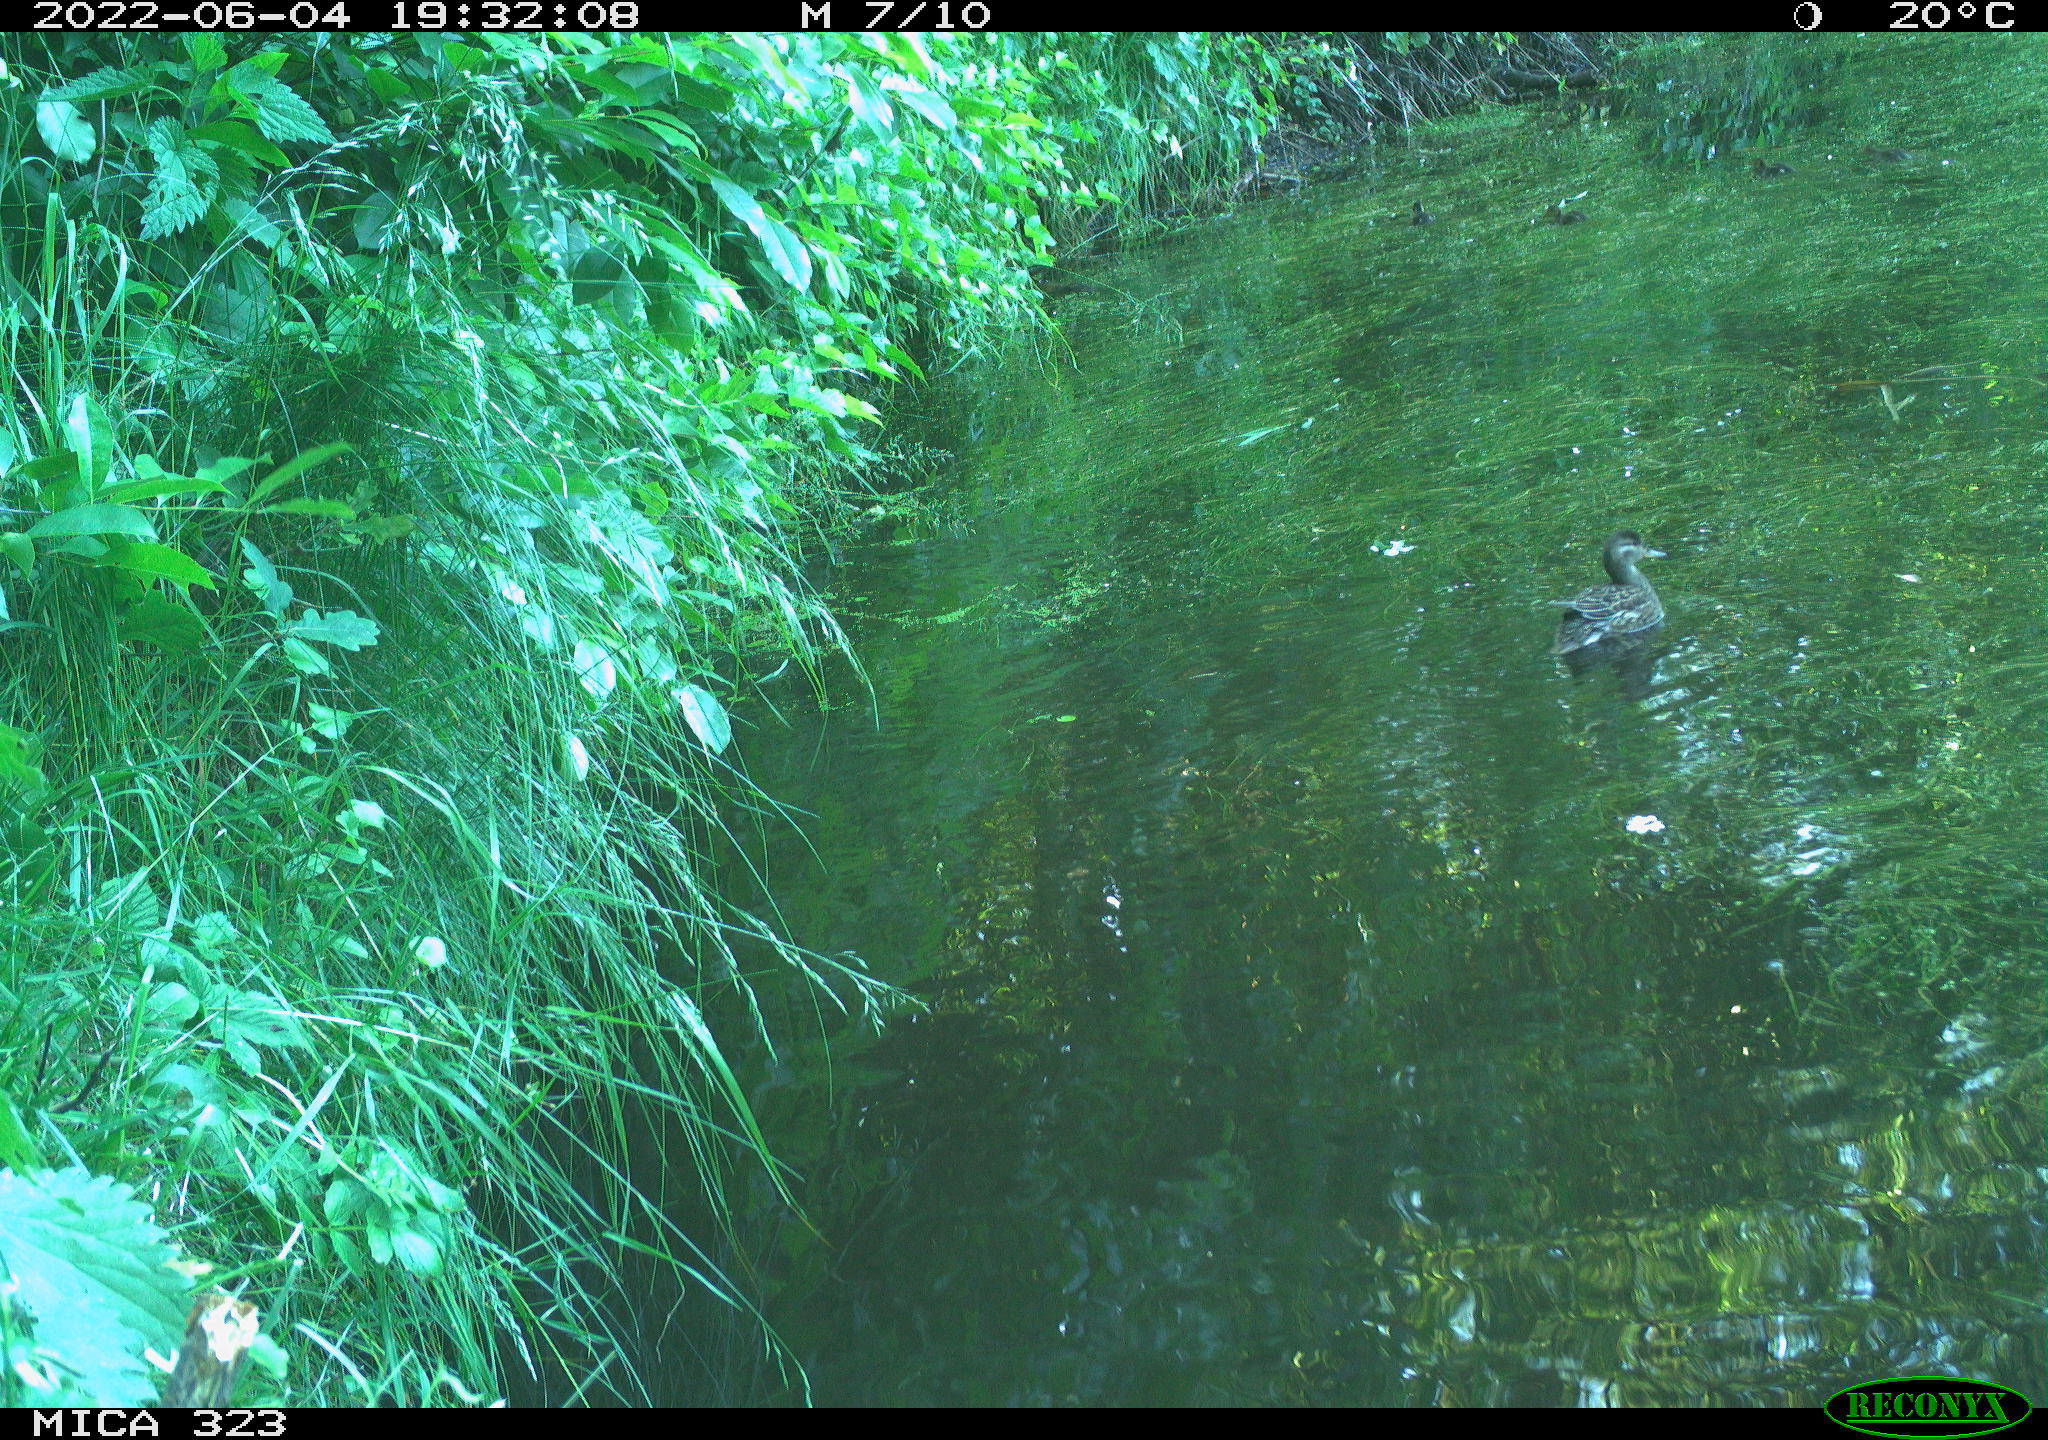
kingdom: Animalia
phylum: Chordata
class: Aves
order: Anseriformes
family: Anatidae
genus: Anas
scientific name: Anas platyrhynchos
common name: Mallard
